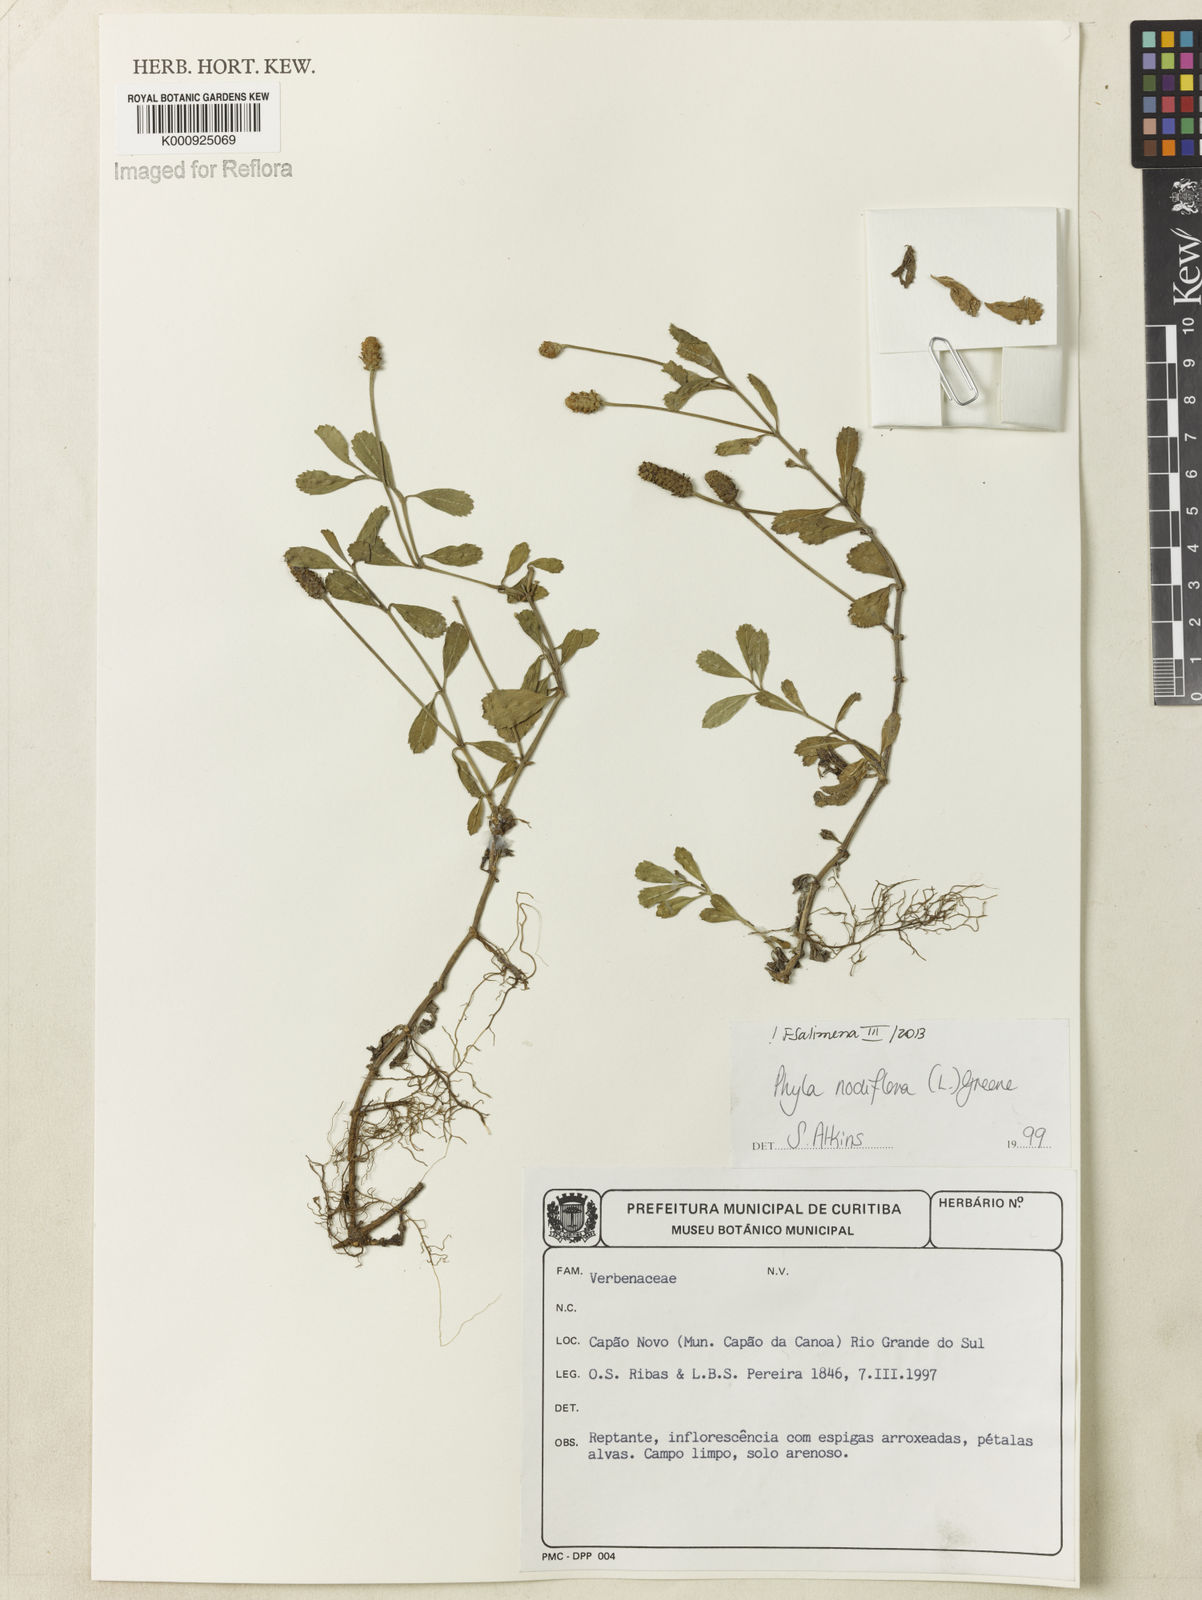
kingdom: Plantae
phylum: Tracheophyta
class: Magnoliopsida
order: Lamiales
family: Verbenaceae
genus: Lippia
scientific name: Lippia
